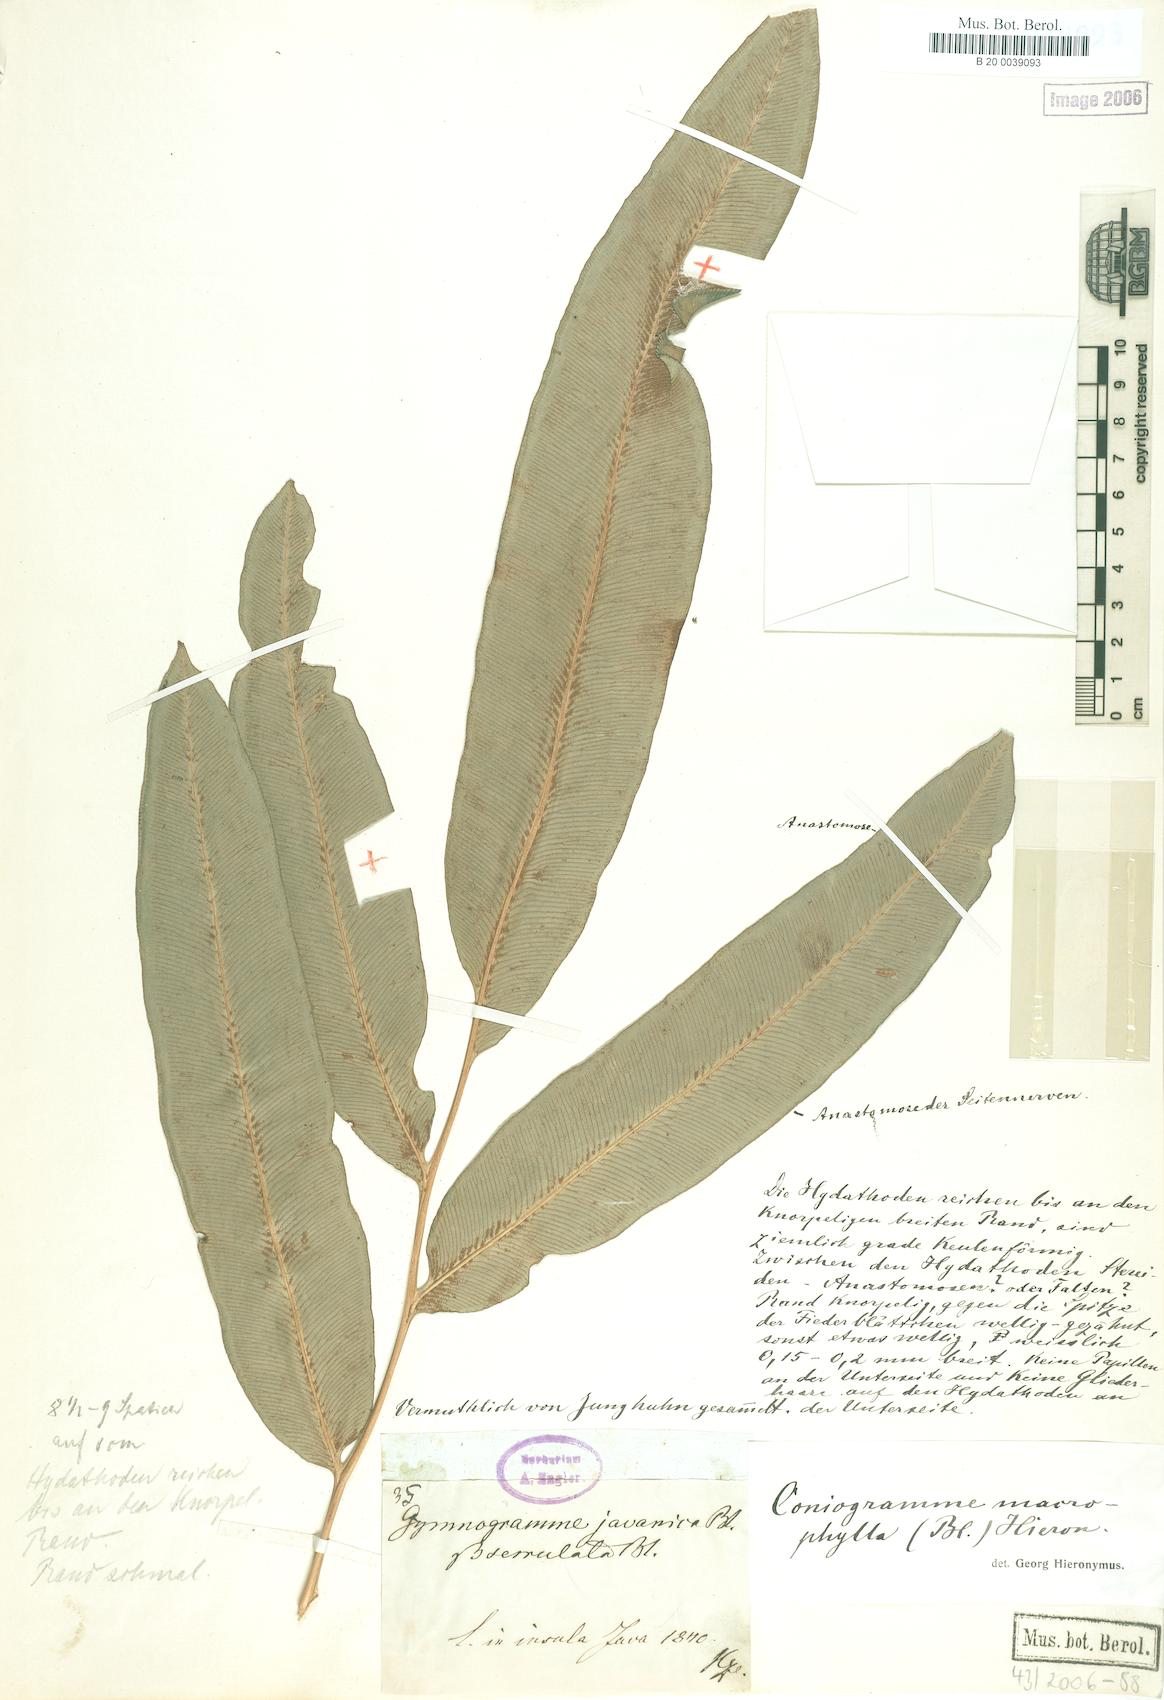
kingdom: Plantae
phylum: Tracheophyta
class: Polypodiopsida
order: Polypodiales
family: Pteridaceae
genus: Coniogramme
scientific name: Coniogramme fraxinea
